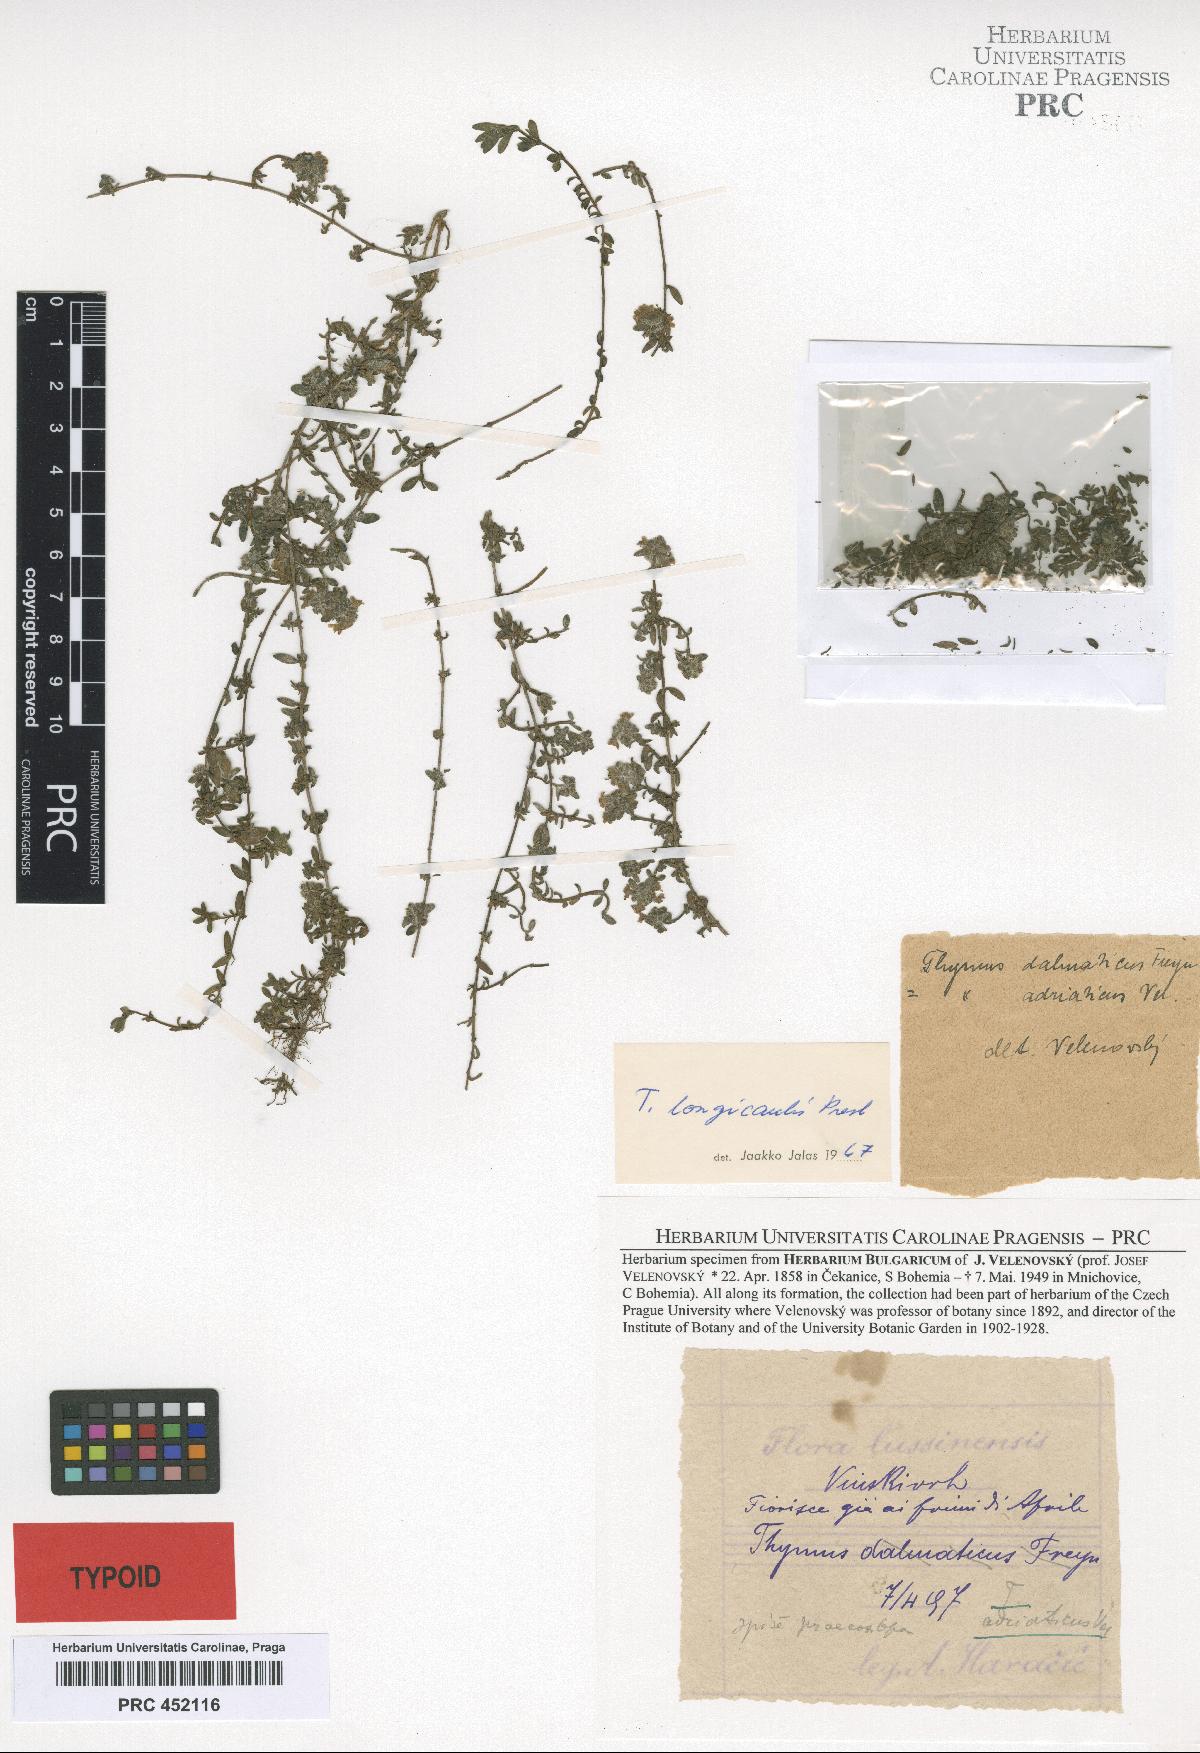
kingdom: Plantae
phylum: Tracheophyta
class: Magnoliopsida
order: Lamiales
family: Lamiaceae
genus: Thymus
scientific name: Thymus longicaulis
